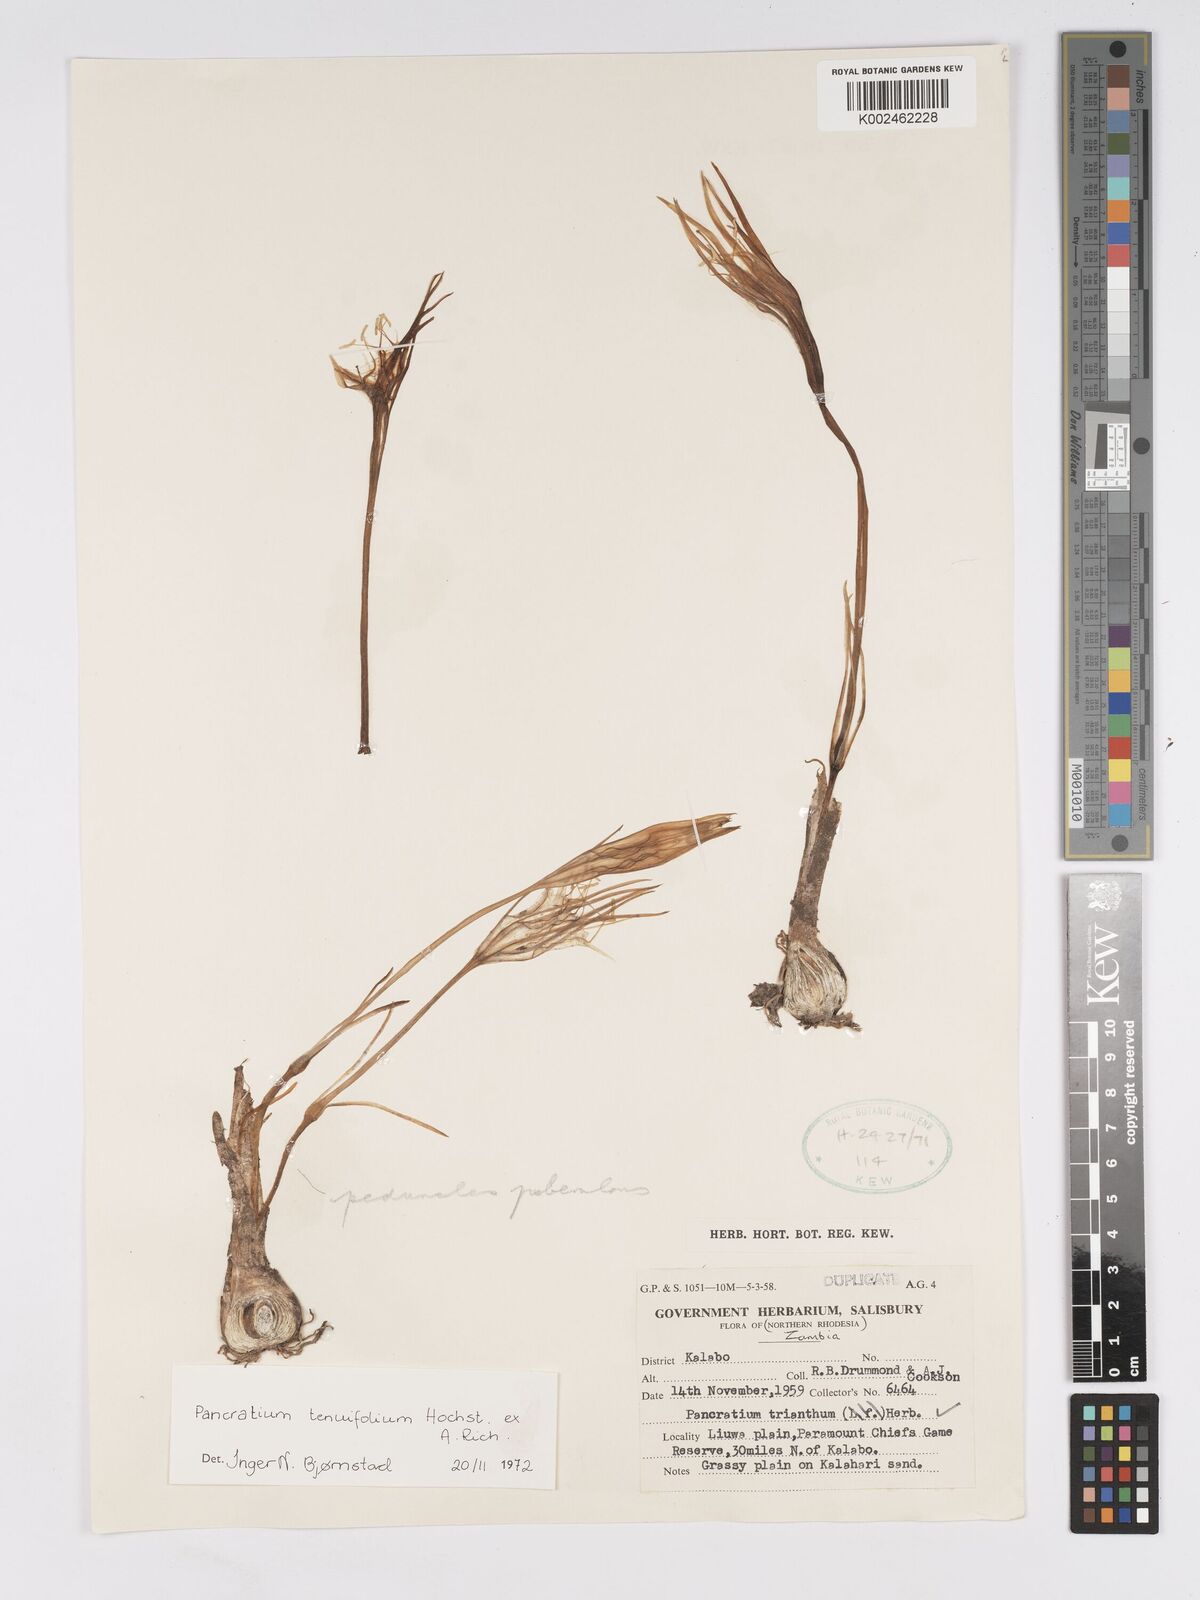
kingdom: Plantae
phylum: Tracheophyta
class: Liliopsida
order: Asparagales
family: Amaryllidaceae
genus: Pancratium
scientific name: Pancratium tenuifolium
